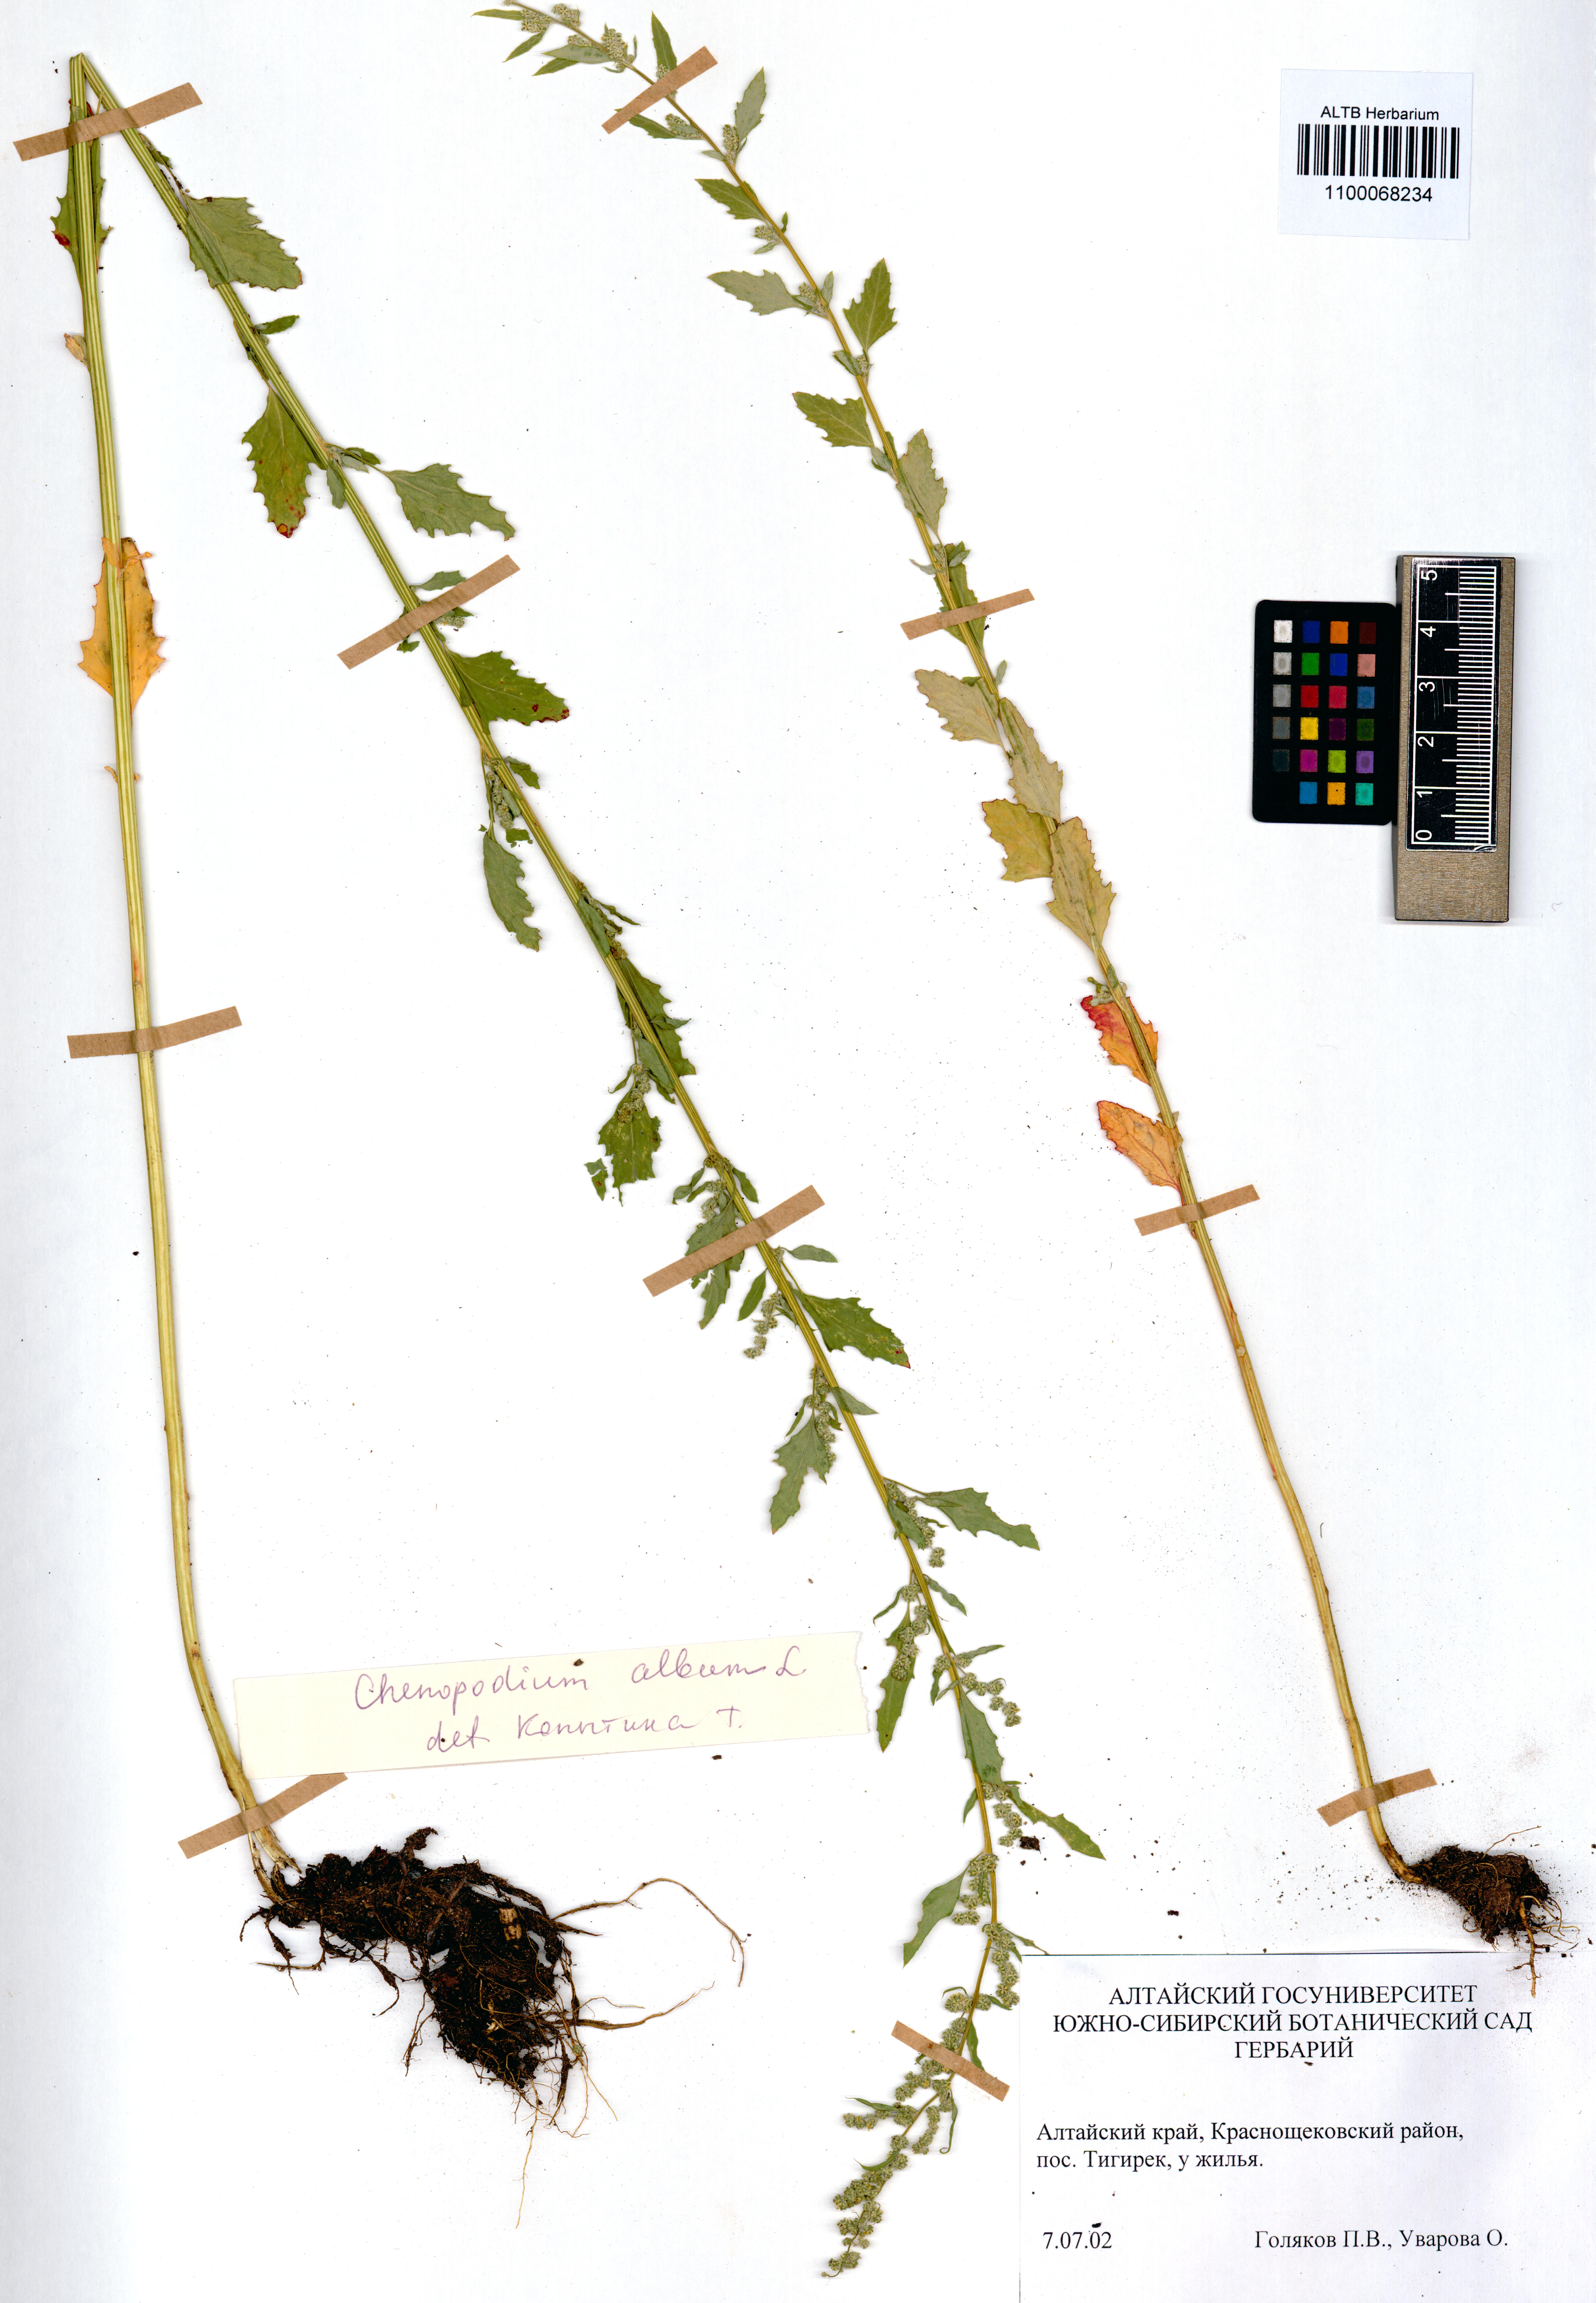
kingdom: Plantae
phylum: Tracheophyta
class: Magnoliopsida
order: Caryophyllales
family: Amaranthaceae
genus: Chenopodium
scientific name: Chenopodium album
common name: Fat-hen
